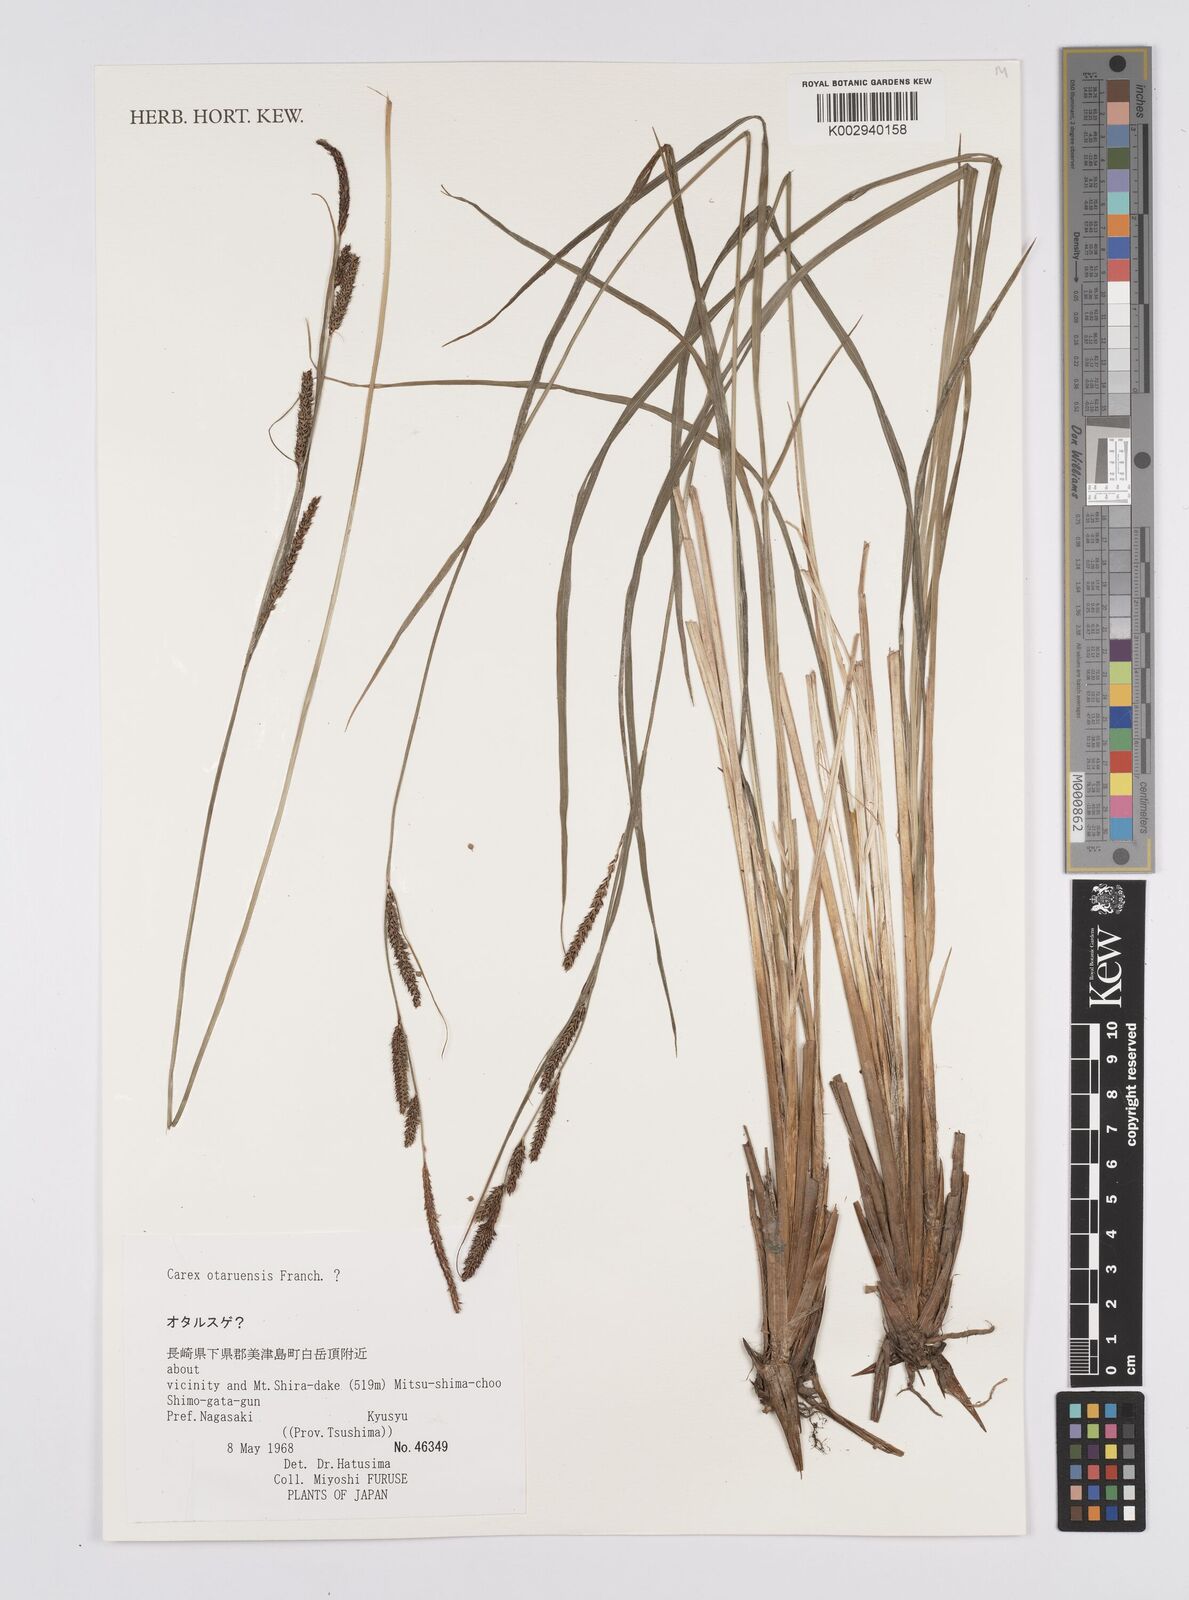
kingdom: Plantae
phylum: Tracheophyta
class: Liliopsida
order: Poales
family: Cyperaceae
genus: Carex
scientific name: Carex otaruensis
